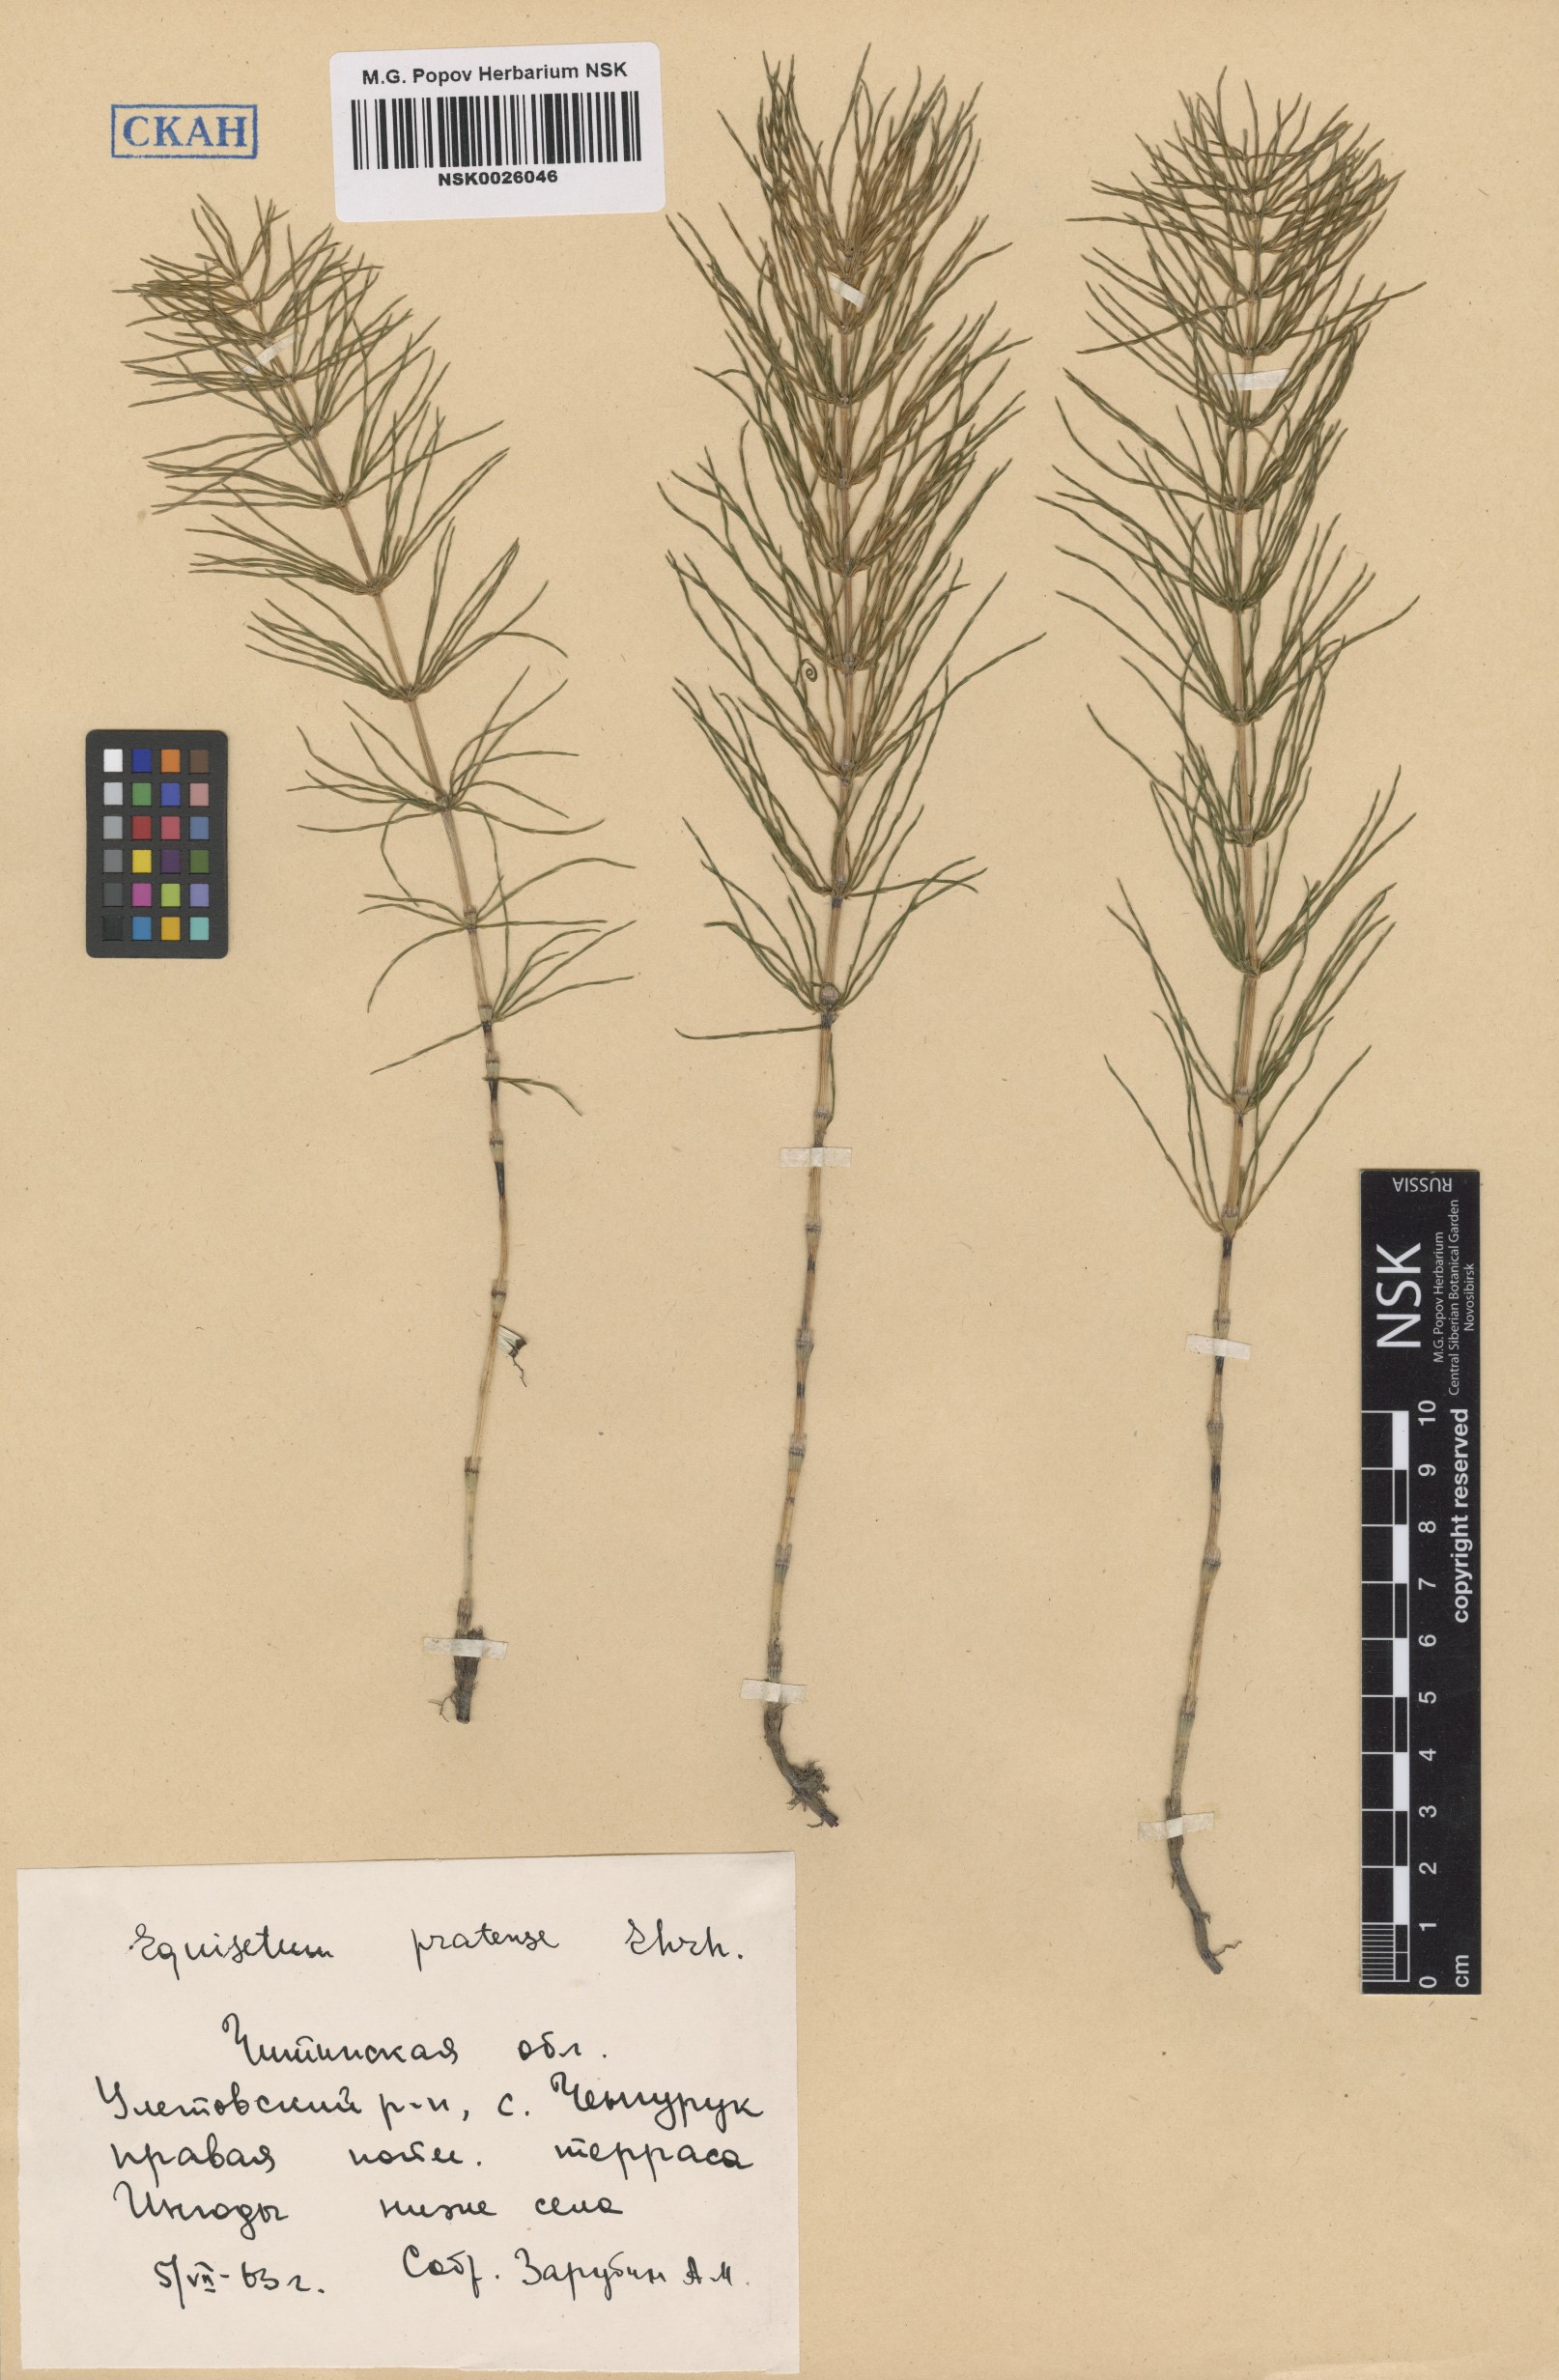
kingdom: Plantae
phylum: Tracheophyta
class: Polypodiopsida
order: Equisetales
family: Equisetaceae
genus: Equisetum
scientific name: Equisetum pratense
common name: Meadow horsetail
